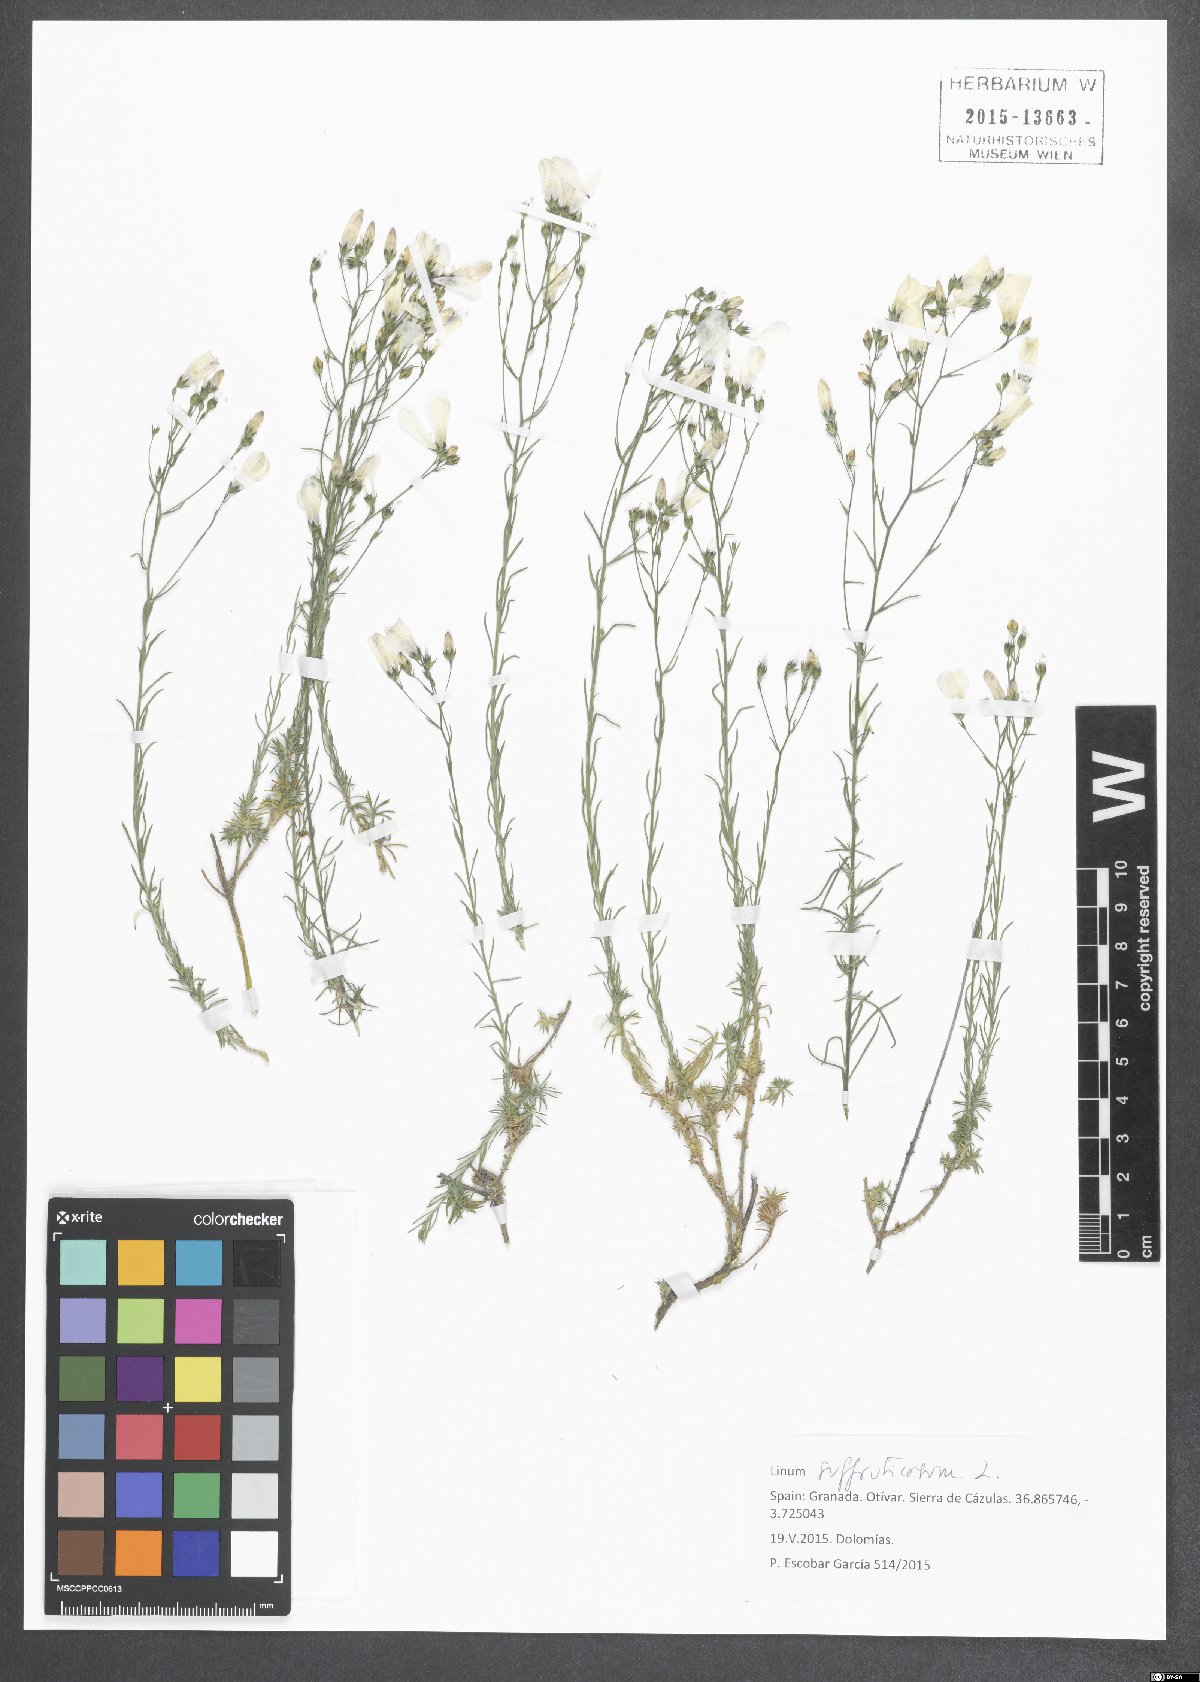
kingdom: Plantae
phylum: Tracheophyta
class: Magnoliopsida
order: Malpighiales
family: Linaceae
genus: Linum
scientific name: Linum suffruticosum
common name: White flax
